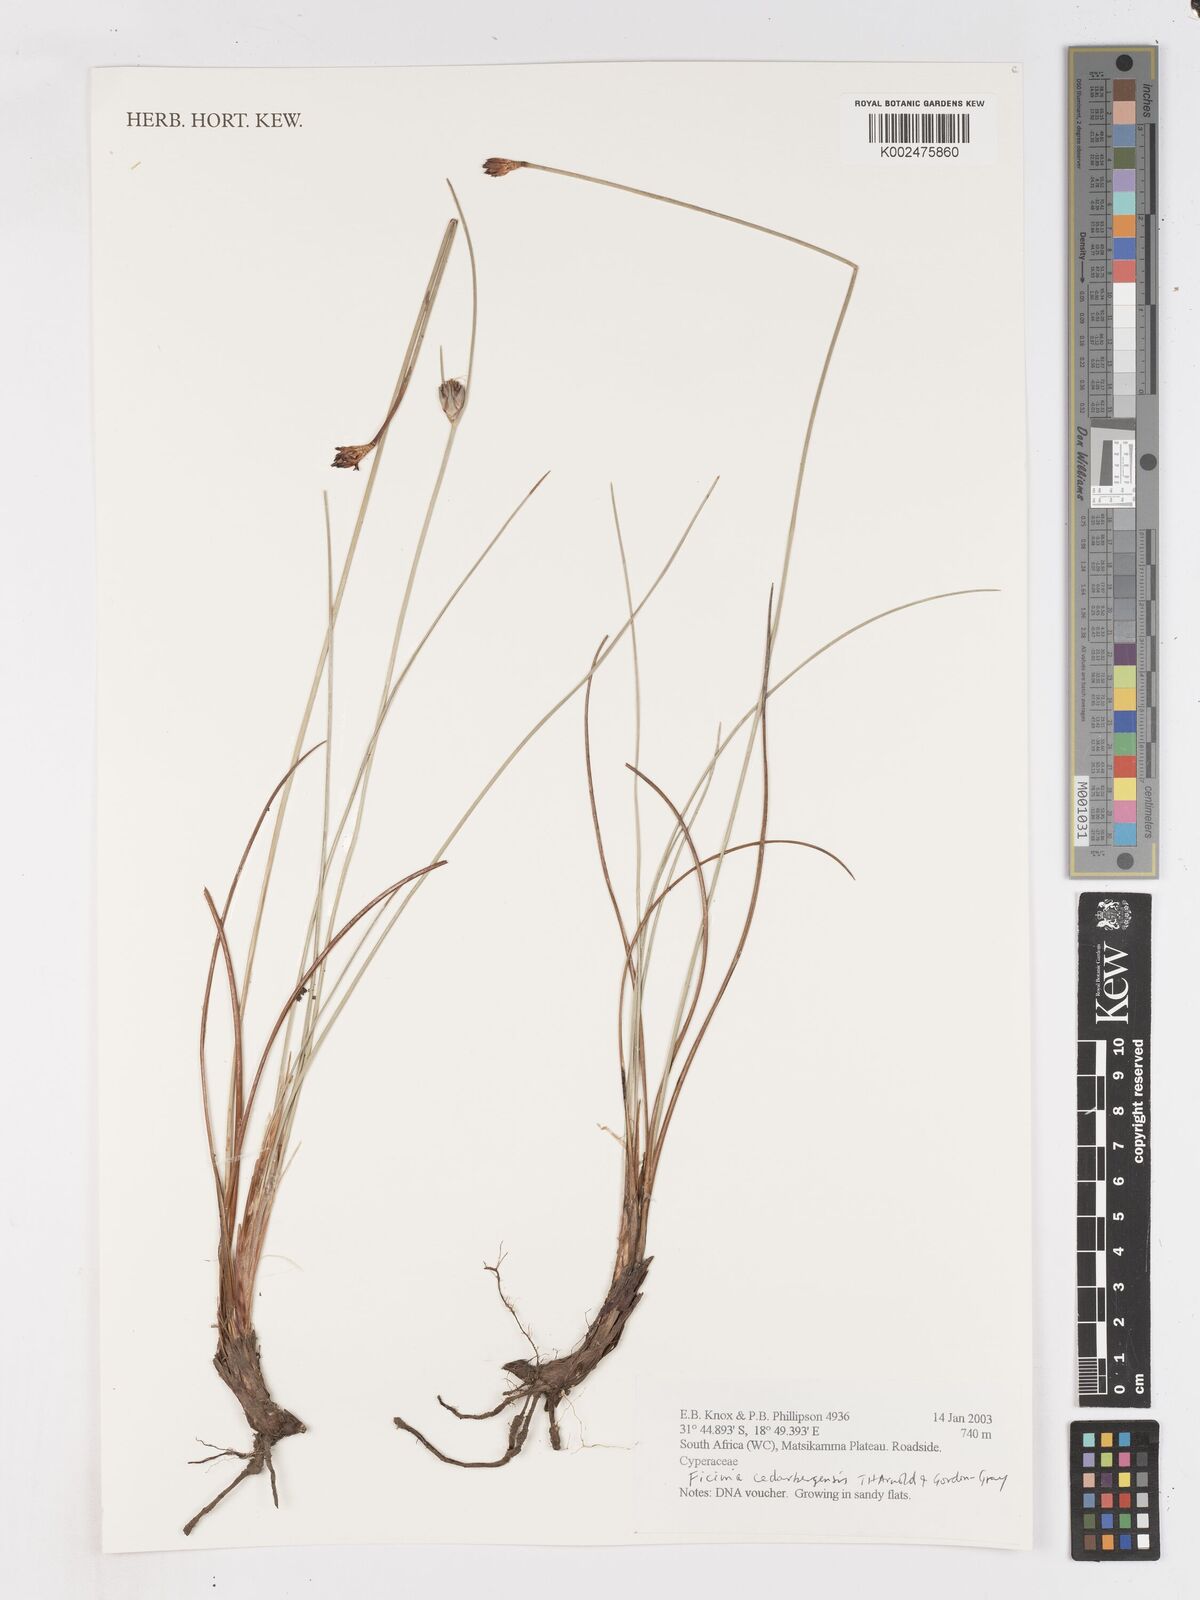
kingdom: Plantae
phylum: Tracheophyta
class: Liliopsida
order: Poales
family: Cyperaceae
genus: Ficinia
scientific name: Ficinia cedarbergensis
